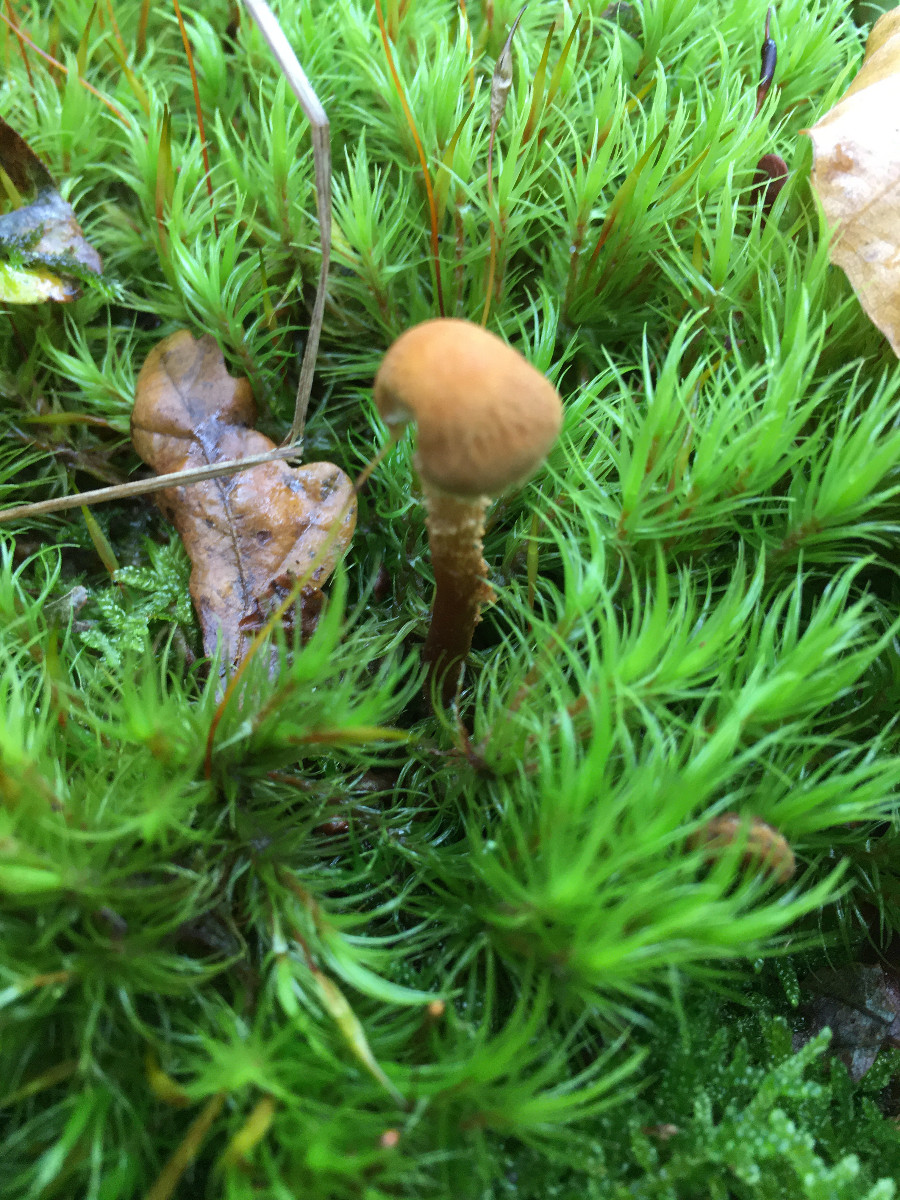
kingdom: Fungi
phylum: Basidiomycota
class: Agaricomycetes
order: Agaricales
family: Tricholomataceae
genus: Cystoderma
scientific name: Cystoderma jasonis
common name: gulkødet grynhat
